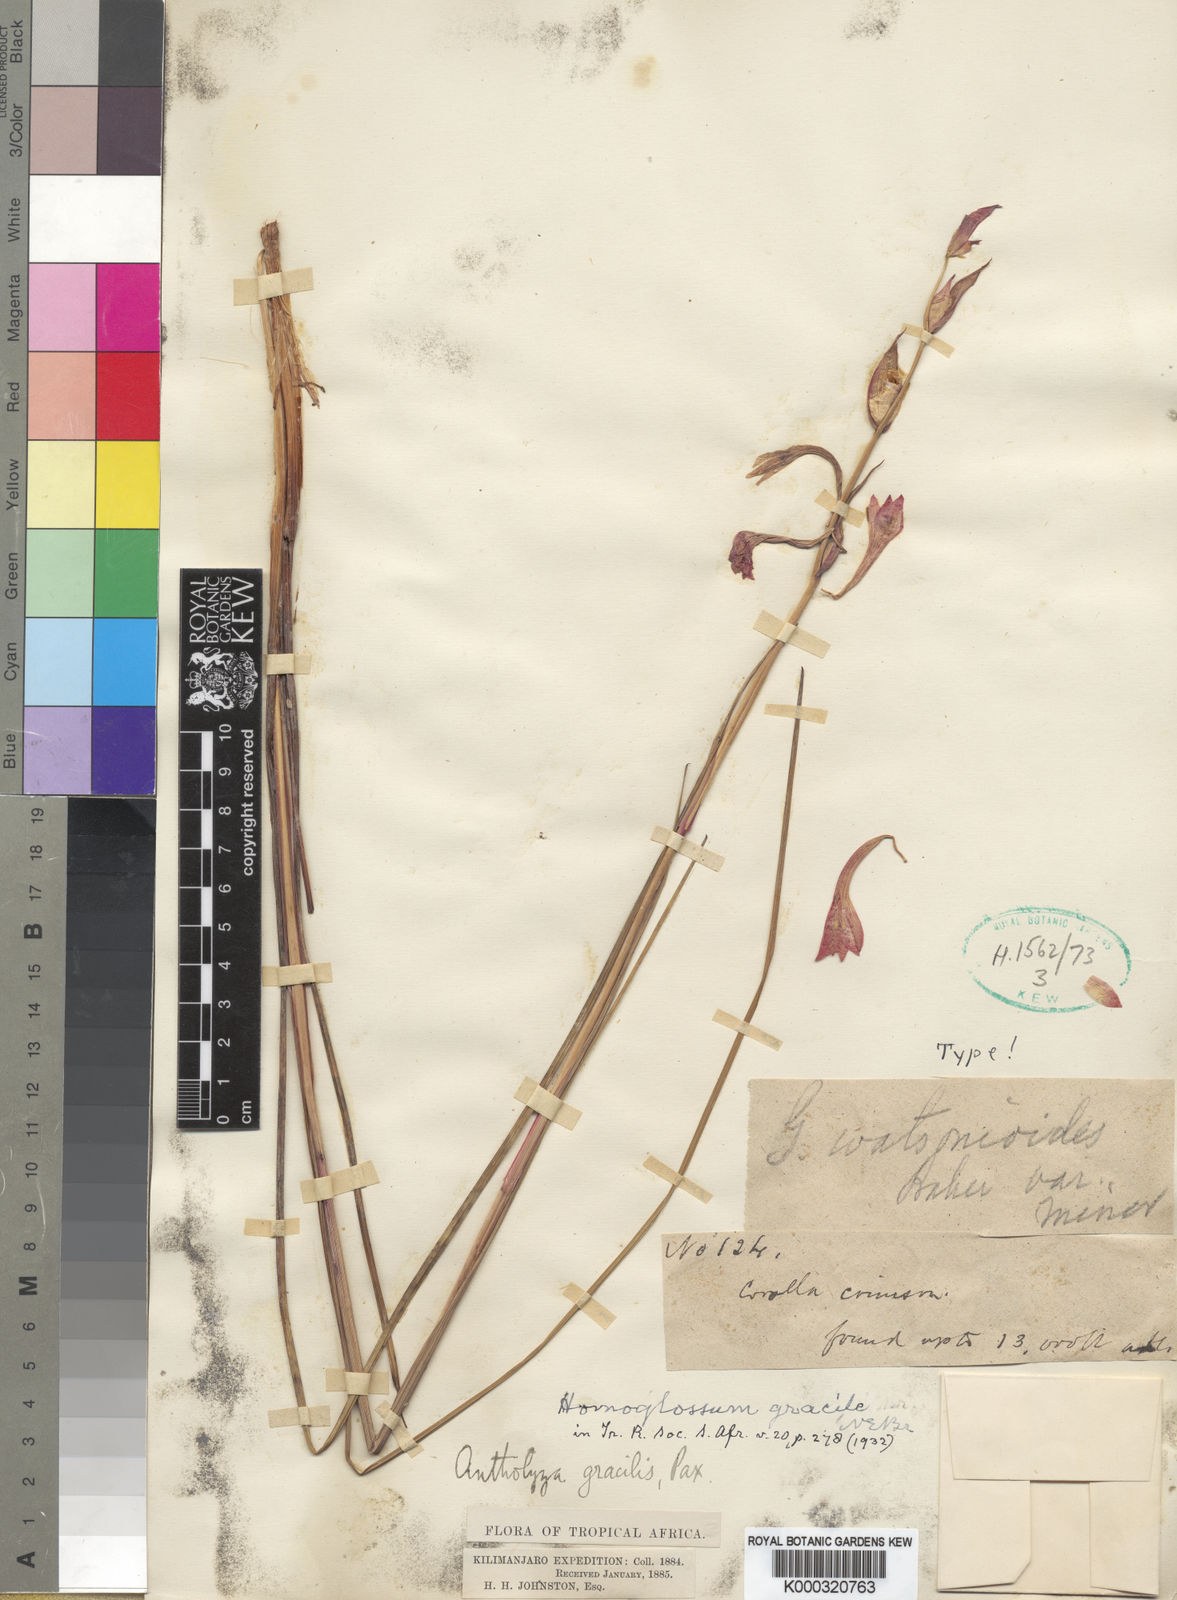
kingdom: Plantae
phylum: Tracheophyta
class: Liliopsida
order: Asparagales
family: Iridaceae
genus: Gladiolus
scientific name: Gladiolus watsonioides
